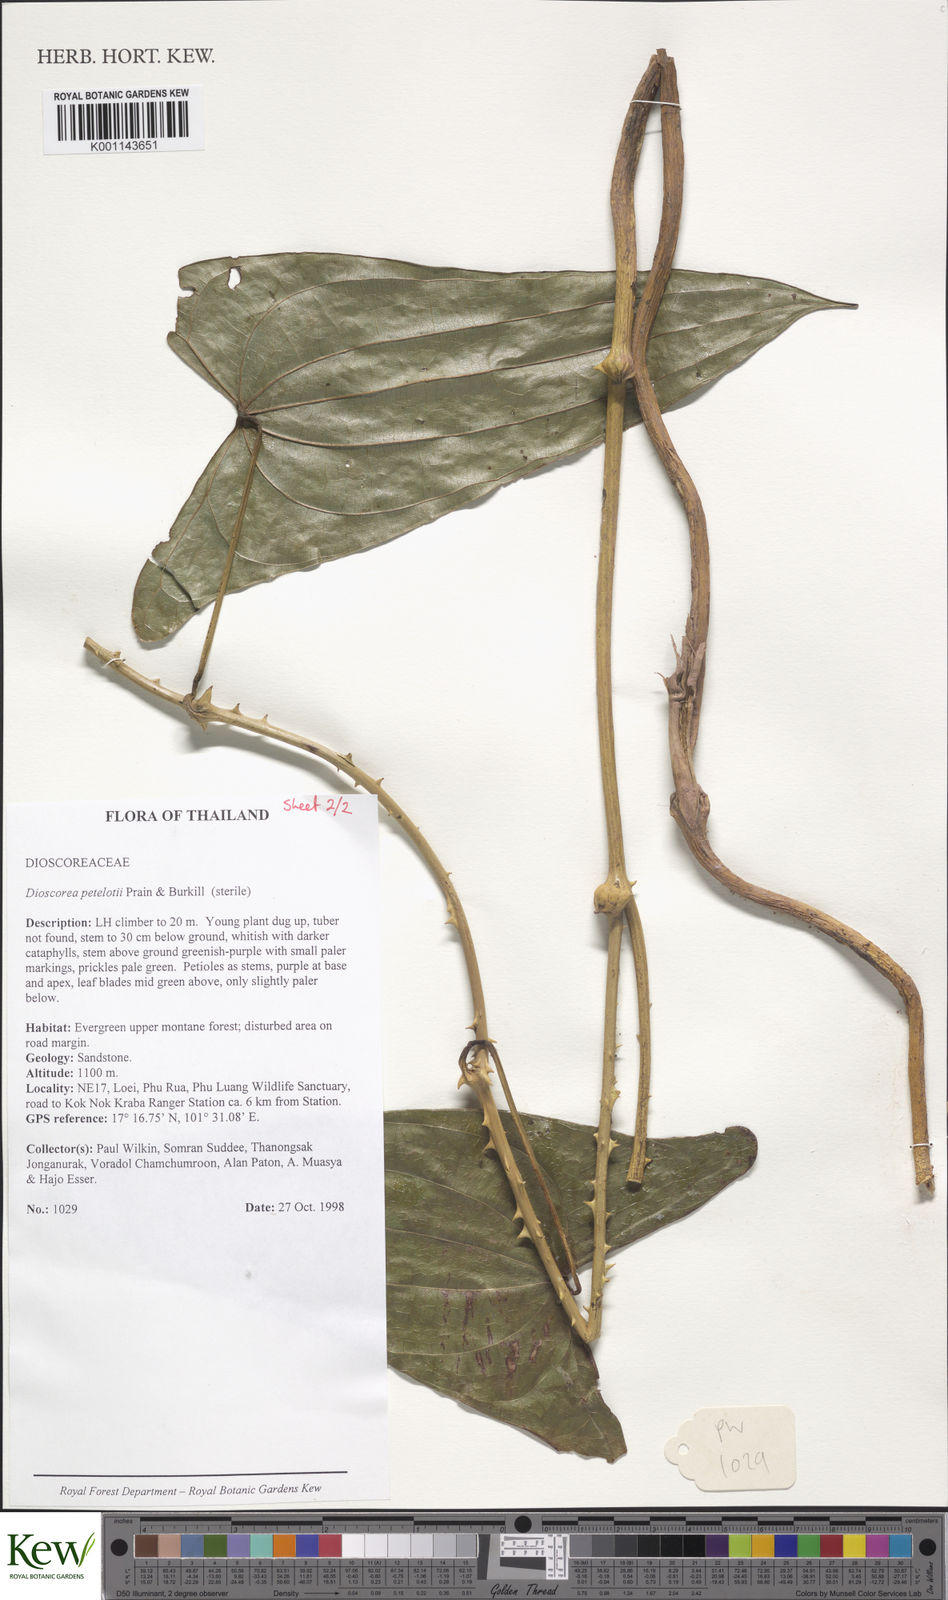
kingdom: Plantae
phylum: Tracheophyta
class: Liliopsida
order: Dioscoreales
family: Dioscoreaceae
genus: Dioscorea
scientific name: Dioscorea petelotii
